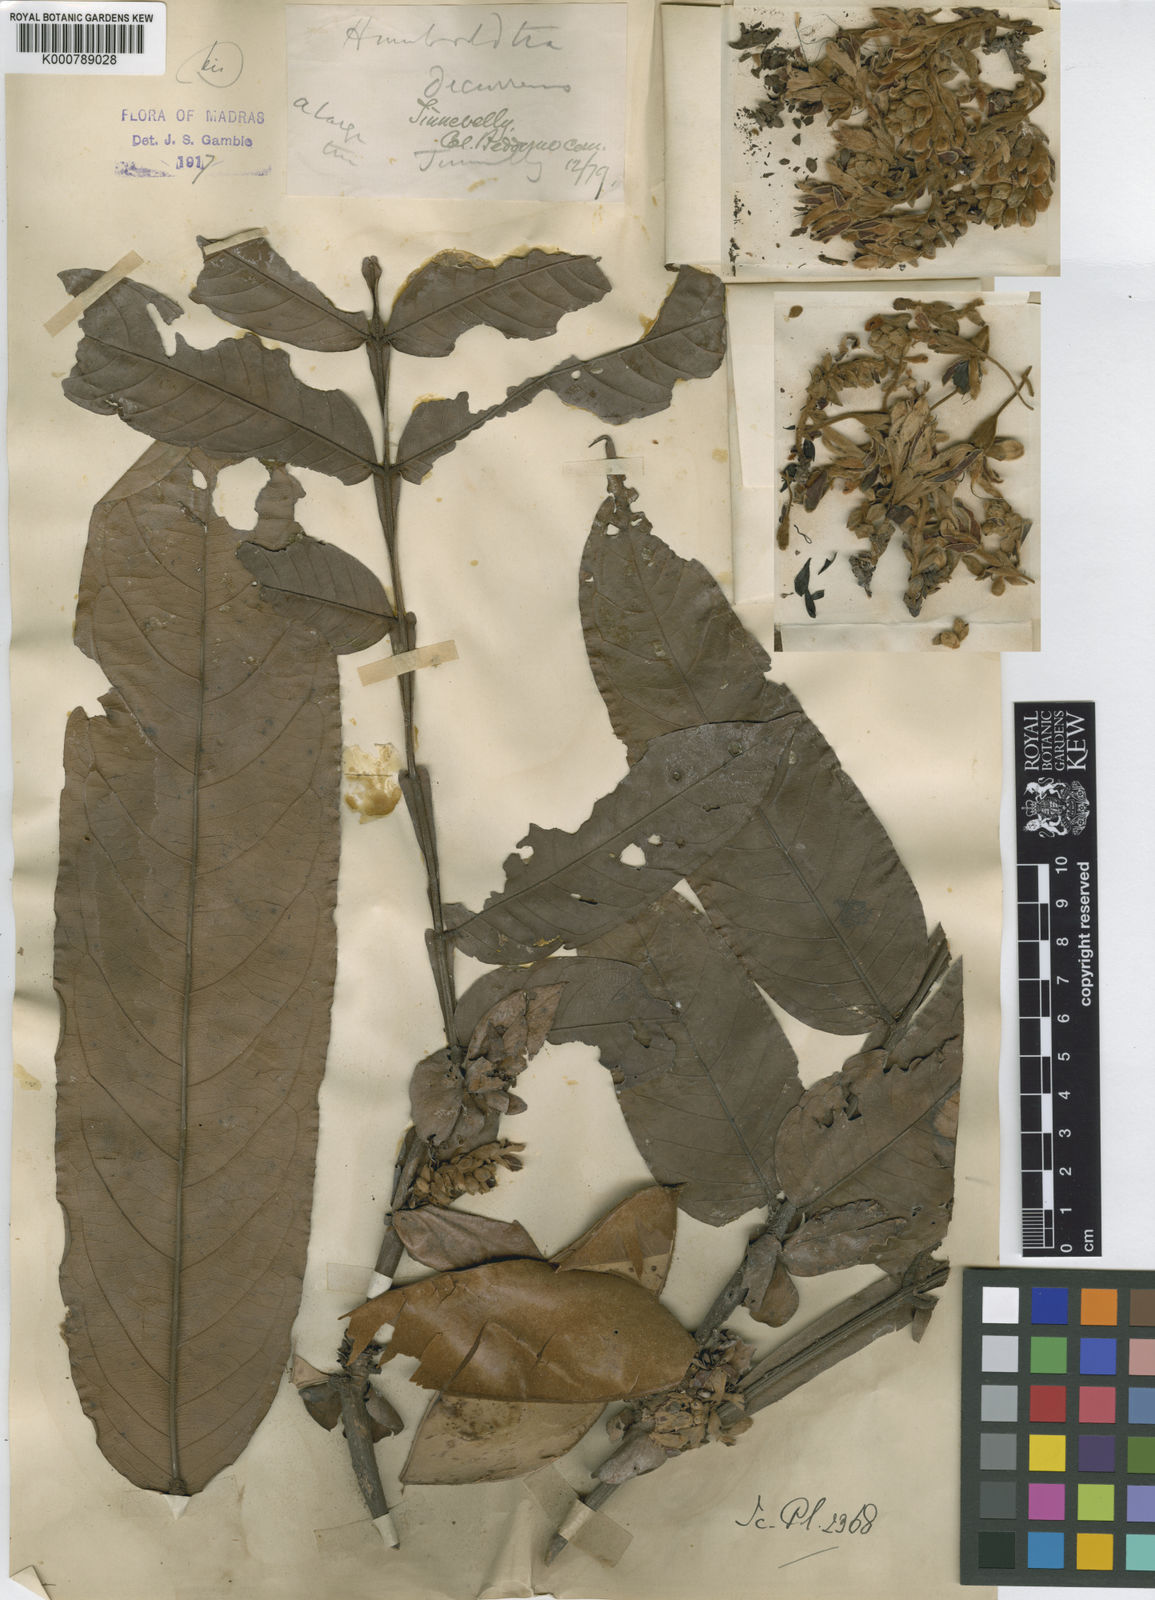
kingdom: Plantae
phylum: Tracheophyta
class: Magnoliopsida
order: Fabales
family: Fabaceae
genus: Humboldtia
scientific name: Humboldtia decurrens
